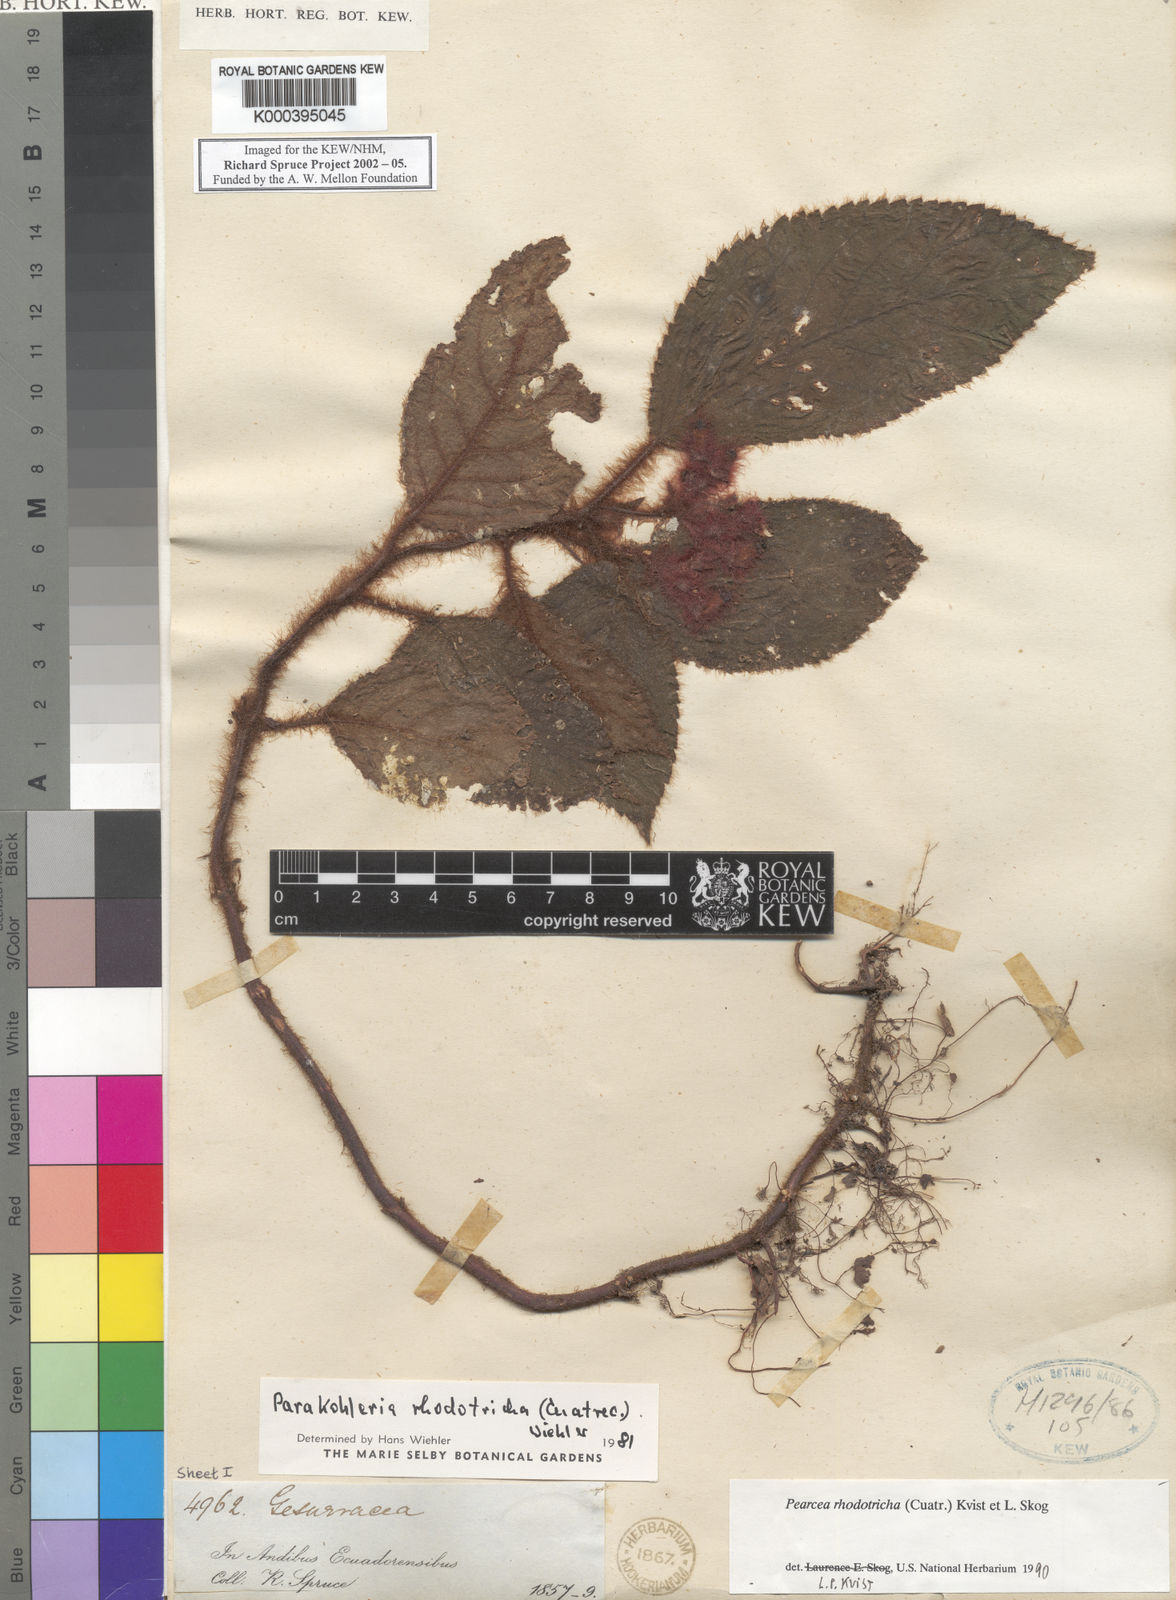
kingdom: Plantae
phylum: Tracheophyta
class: Magnoliopsida
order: Lamiales
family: Gesneriaceae
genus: Pearcea
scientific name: Pearcea rhodotricha
